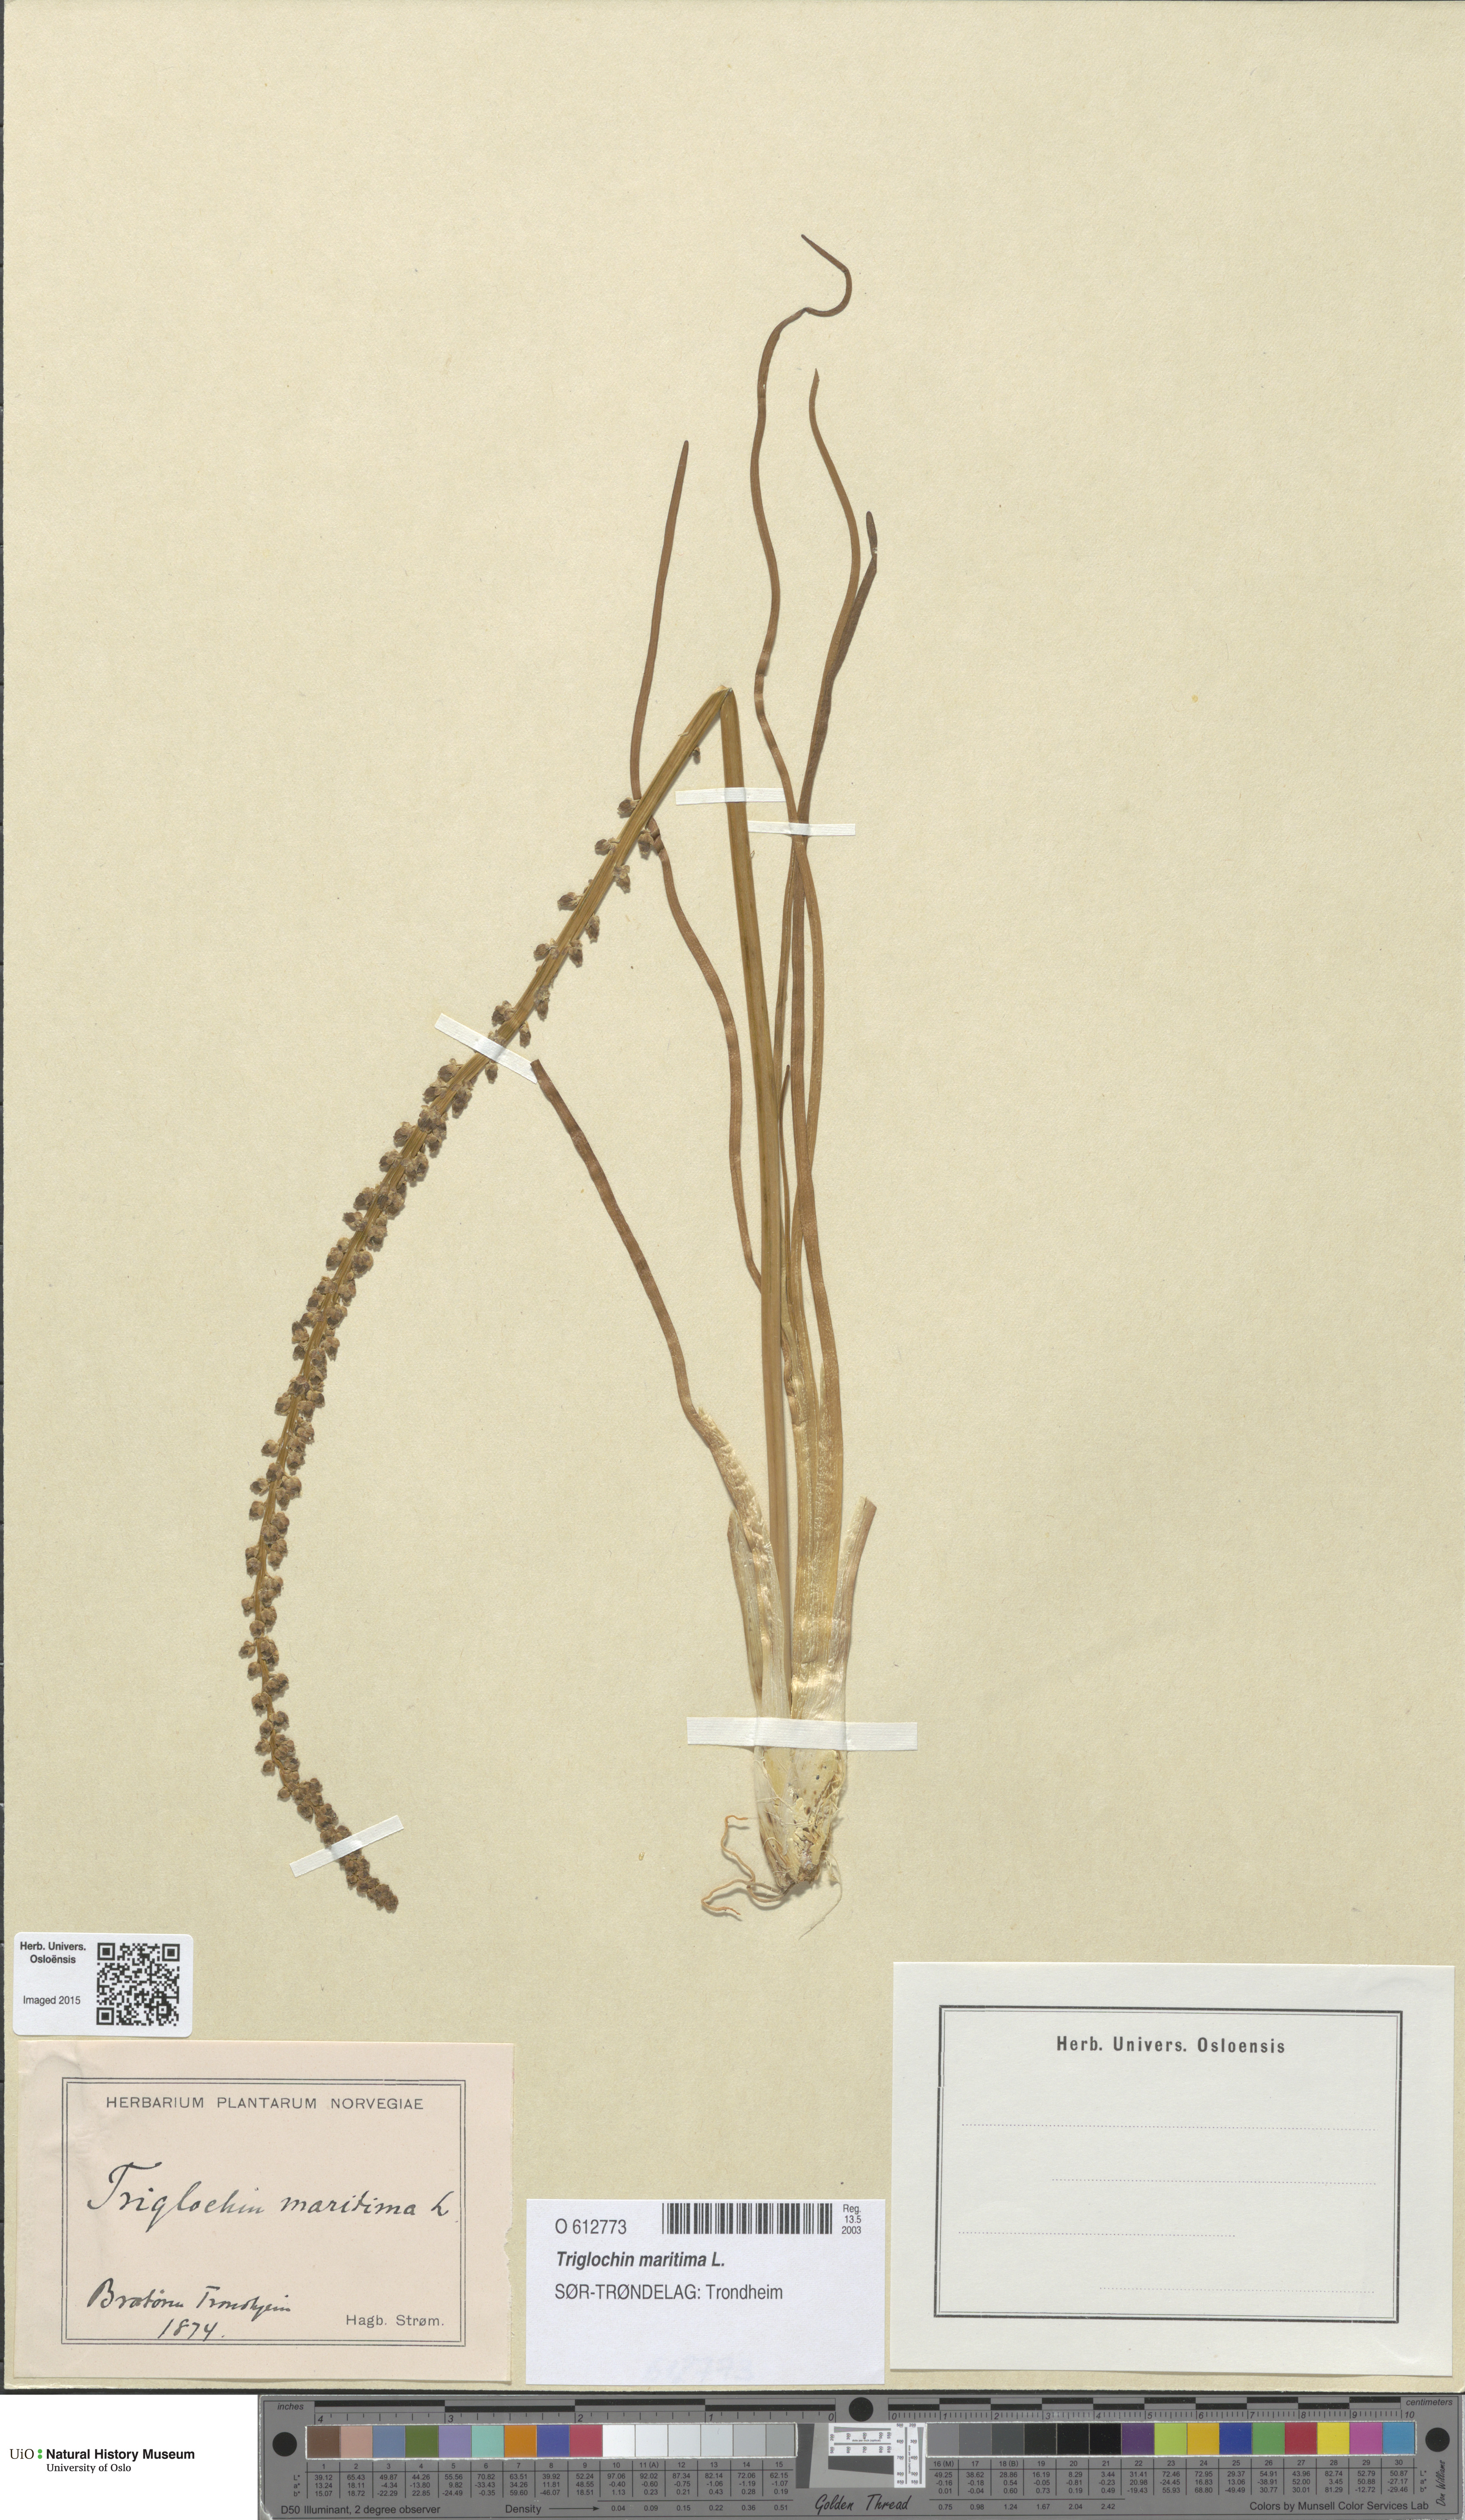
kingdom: Plantae
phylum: Tracheophyta
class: Liliopsida
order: Alismatales
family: Juncaginaceae
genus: Triglochin
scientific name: Triglochin maritima
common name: Sea arrowgrass
